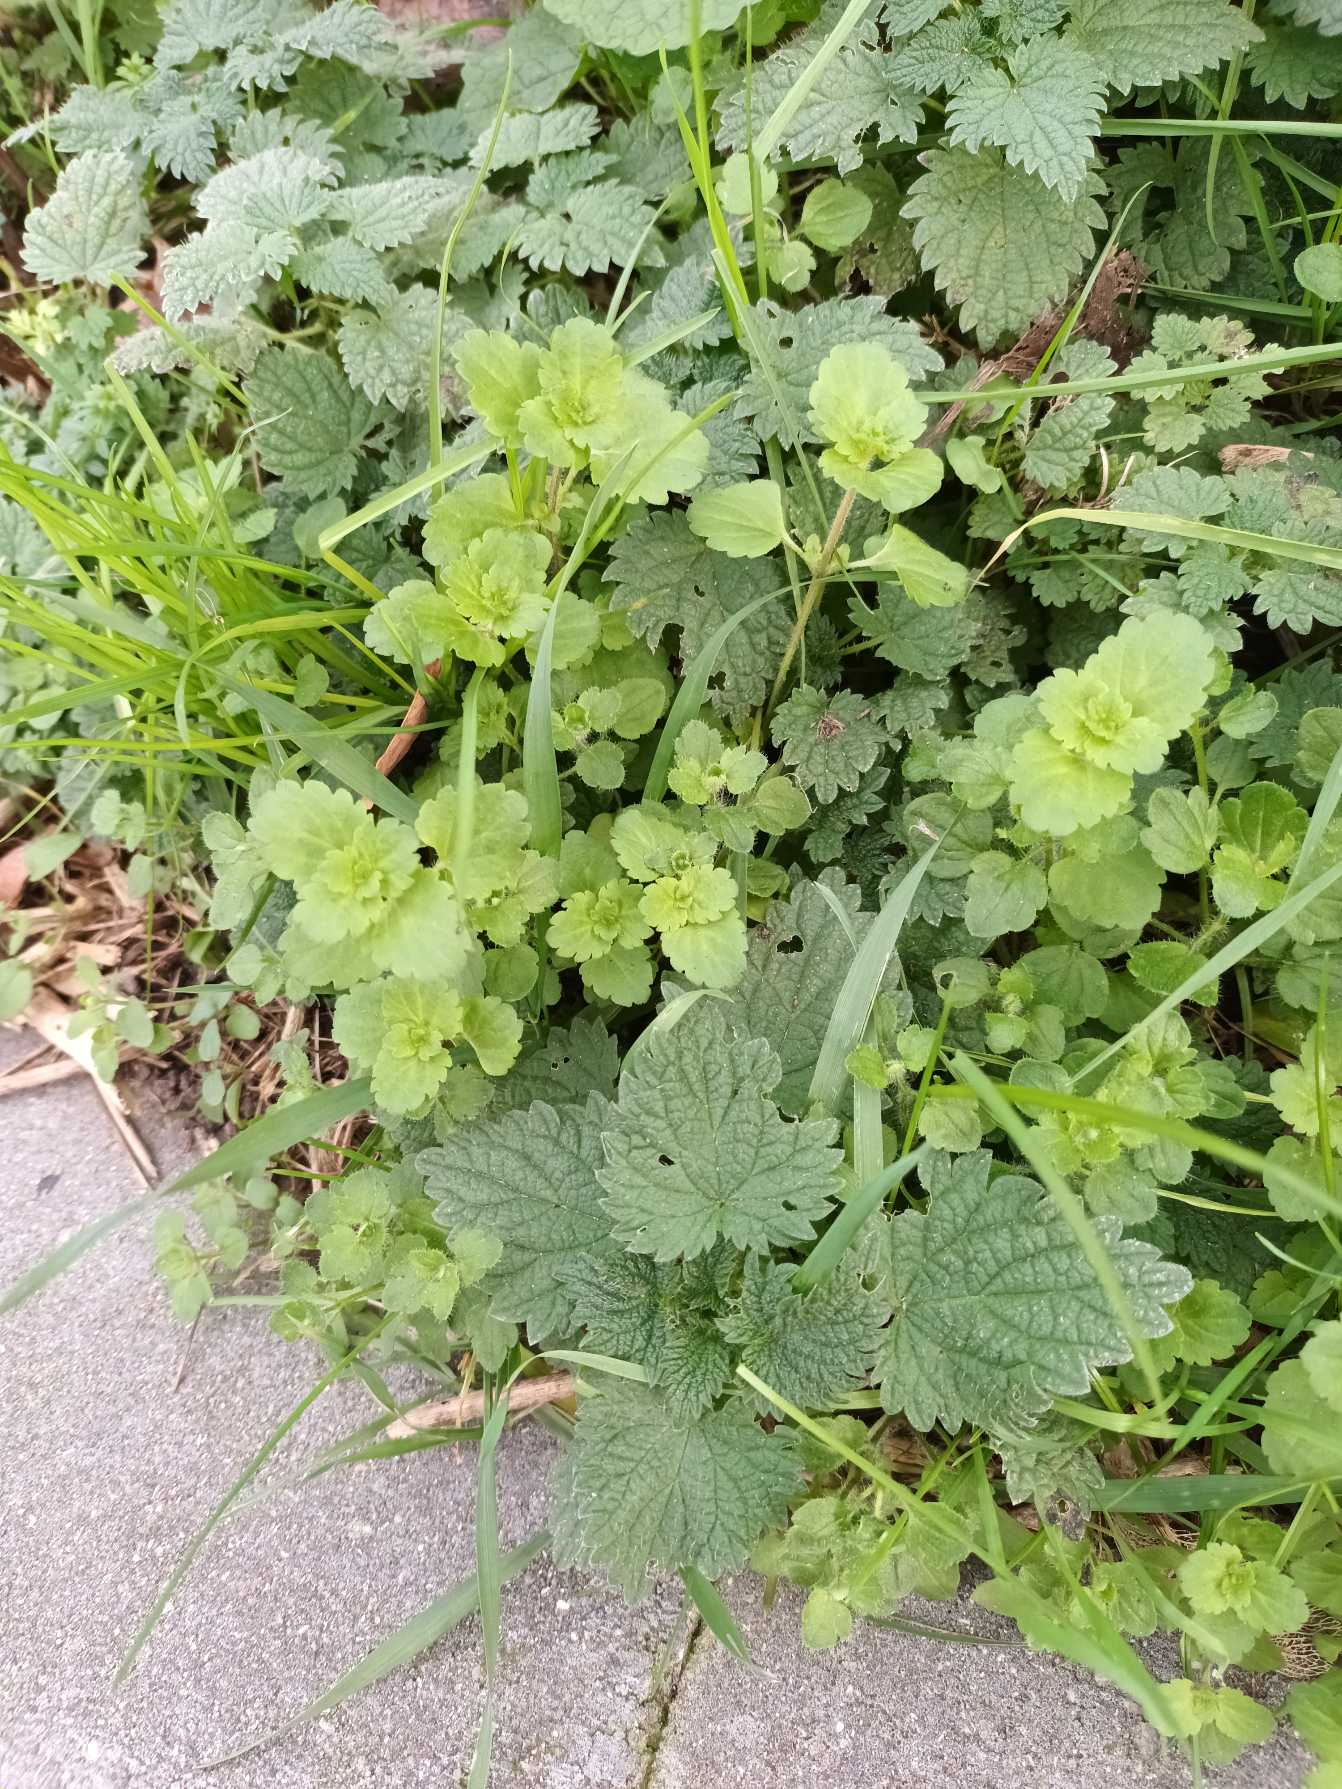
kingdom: Plantae
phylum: Tracheophyta
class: Magnoliopsida
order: Lamiales
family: Plantaginaceae
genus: Veronica
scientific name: Veronica persica
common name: Storkronet ærenpris
